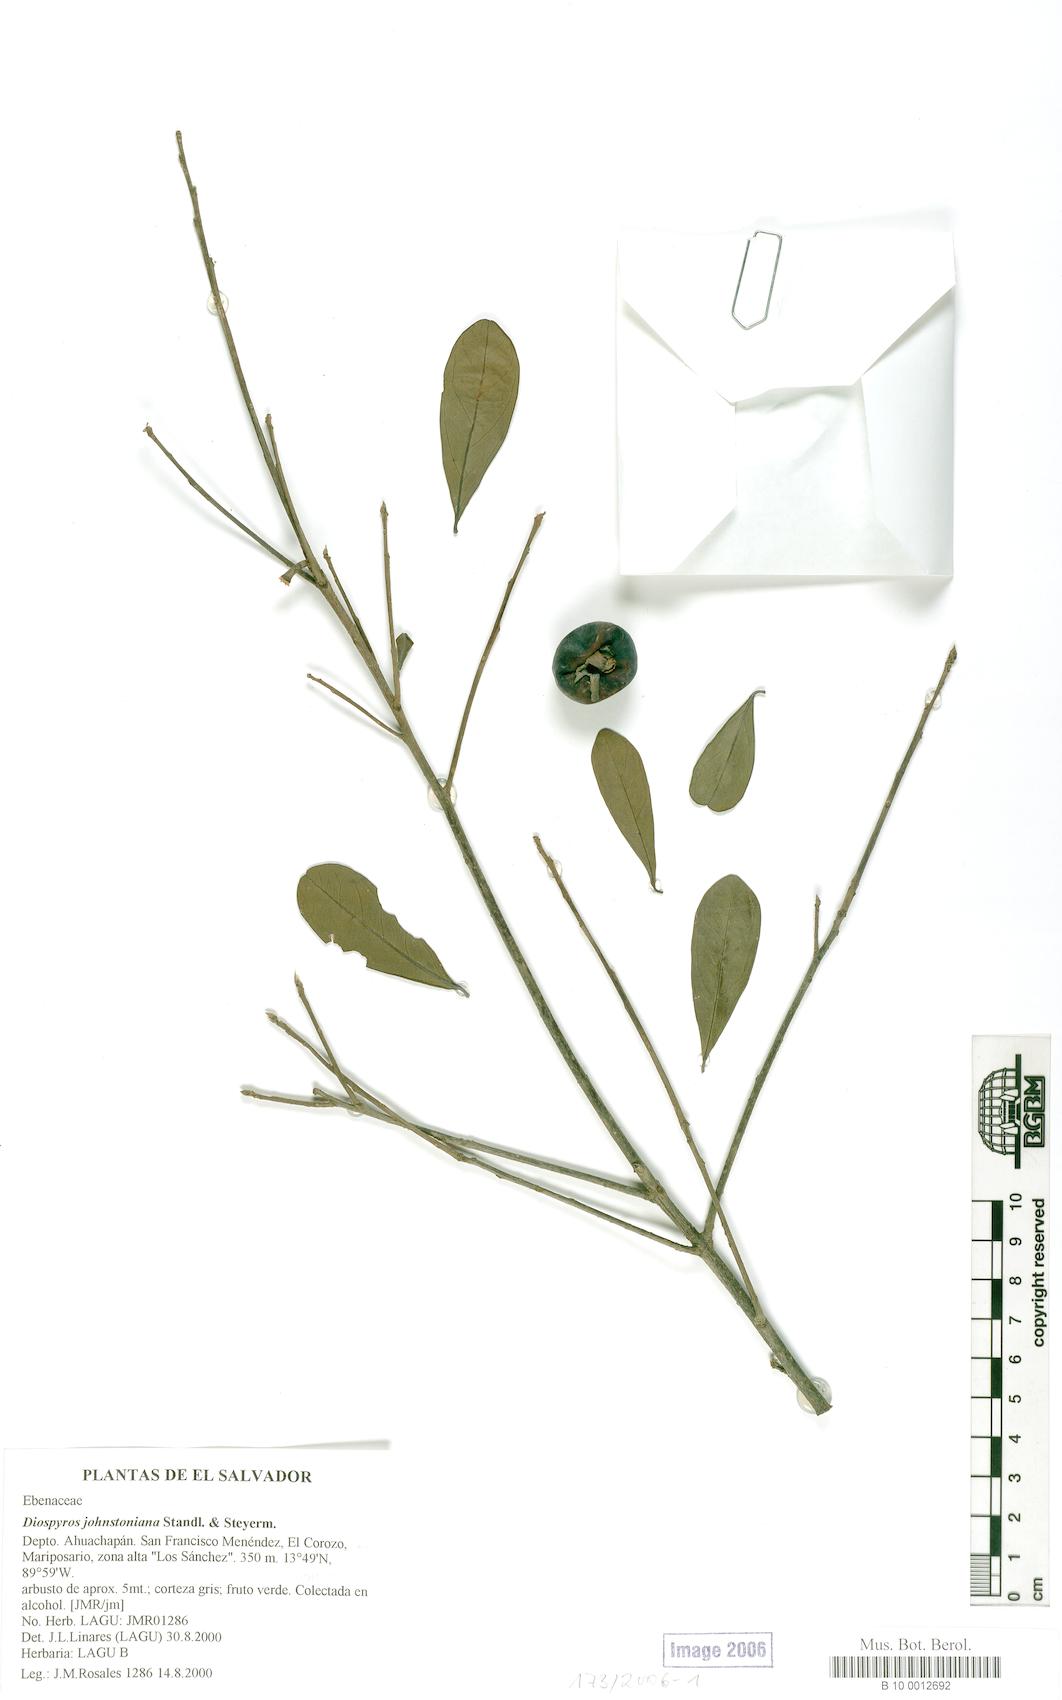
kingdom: Plantae
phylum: Tracheophyta
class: Magnoliopsida
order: Ericales
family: Ebenaceae
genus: Diospyros
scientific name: Diospyros johnstoniana
